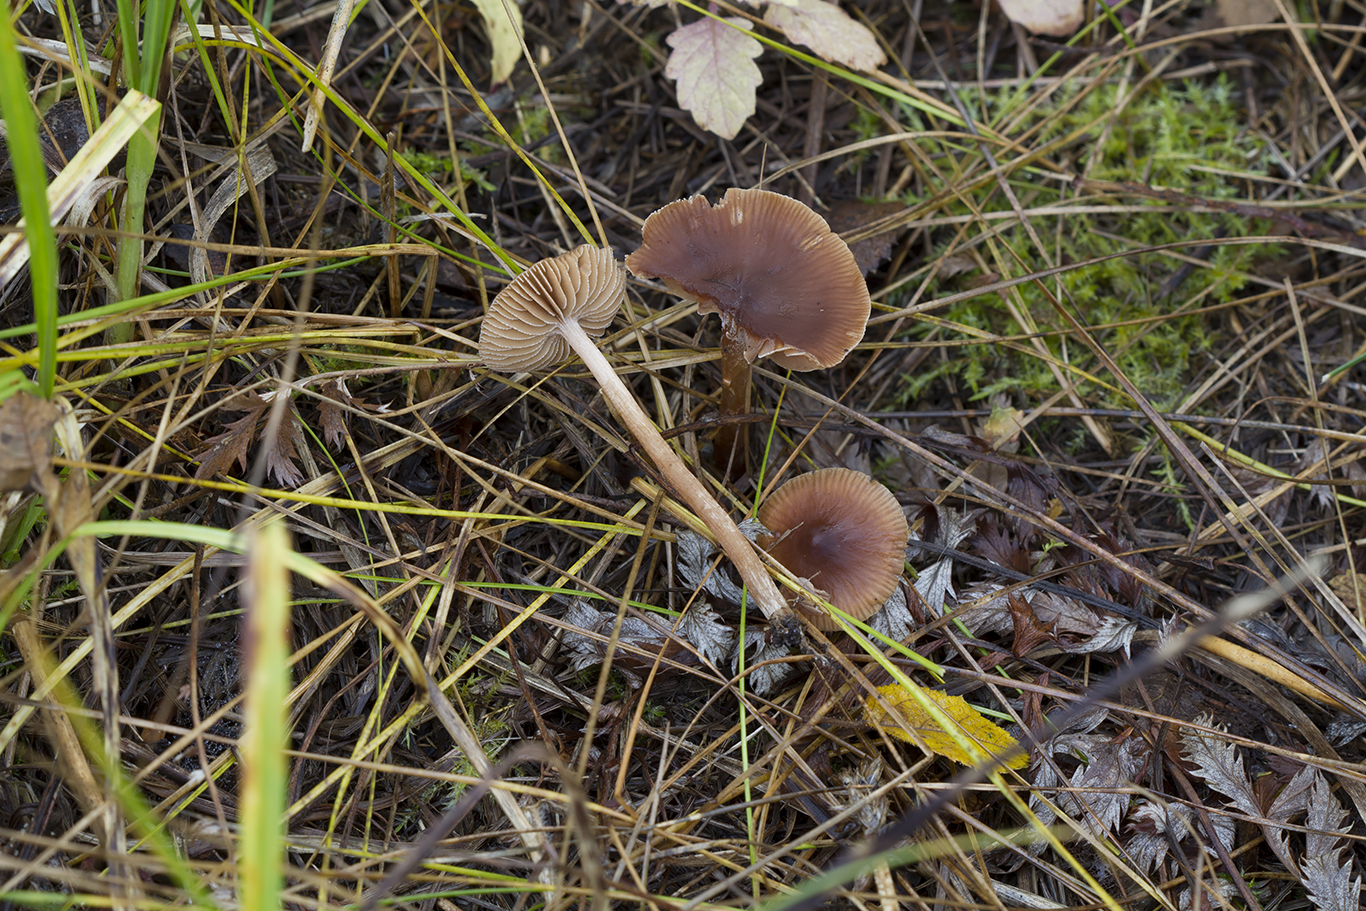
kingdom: Fungi
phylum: Basidiomycota
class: Agaricomycetes
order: Agaricales
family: Hymenogastraceae
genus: Naucoria
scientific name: Naucoria
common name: knaphat
